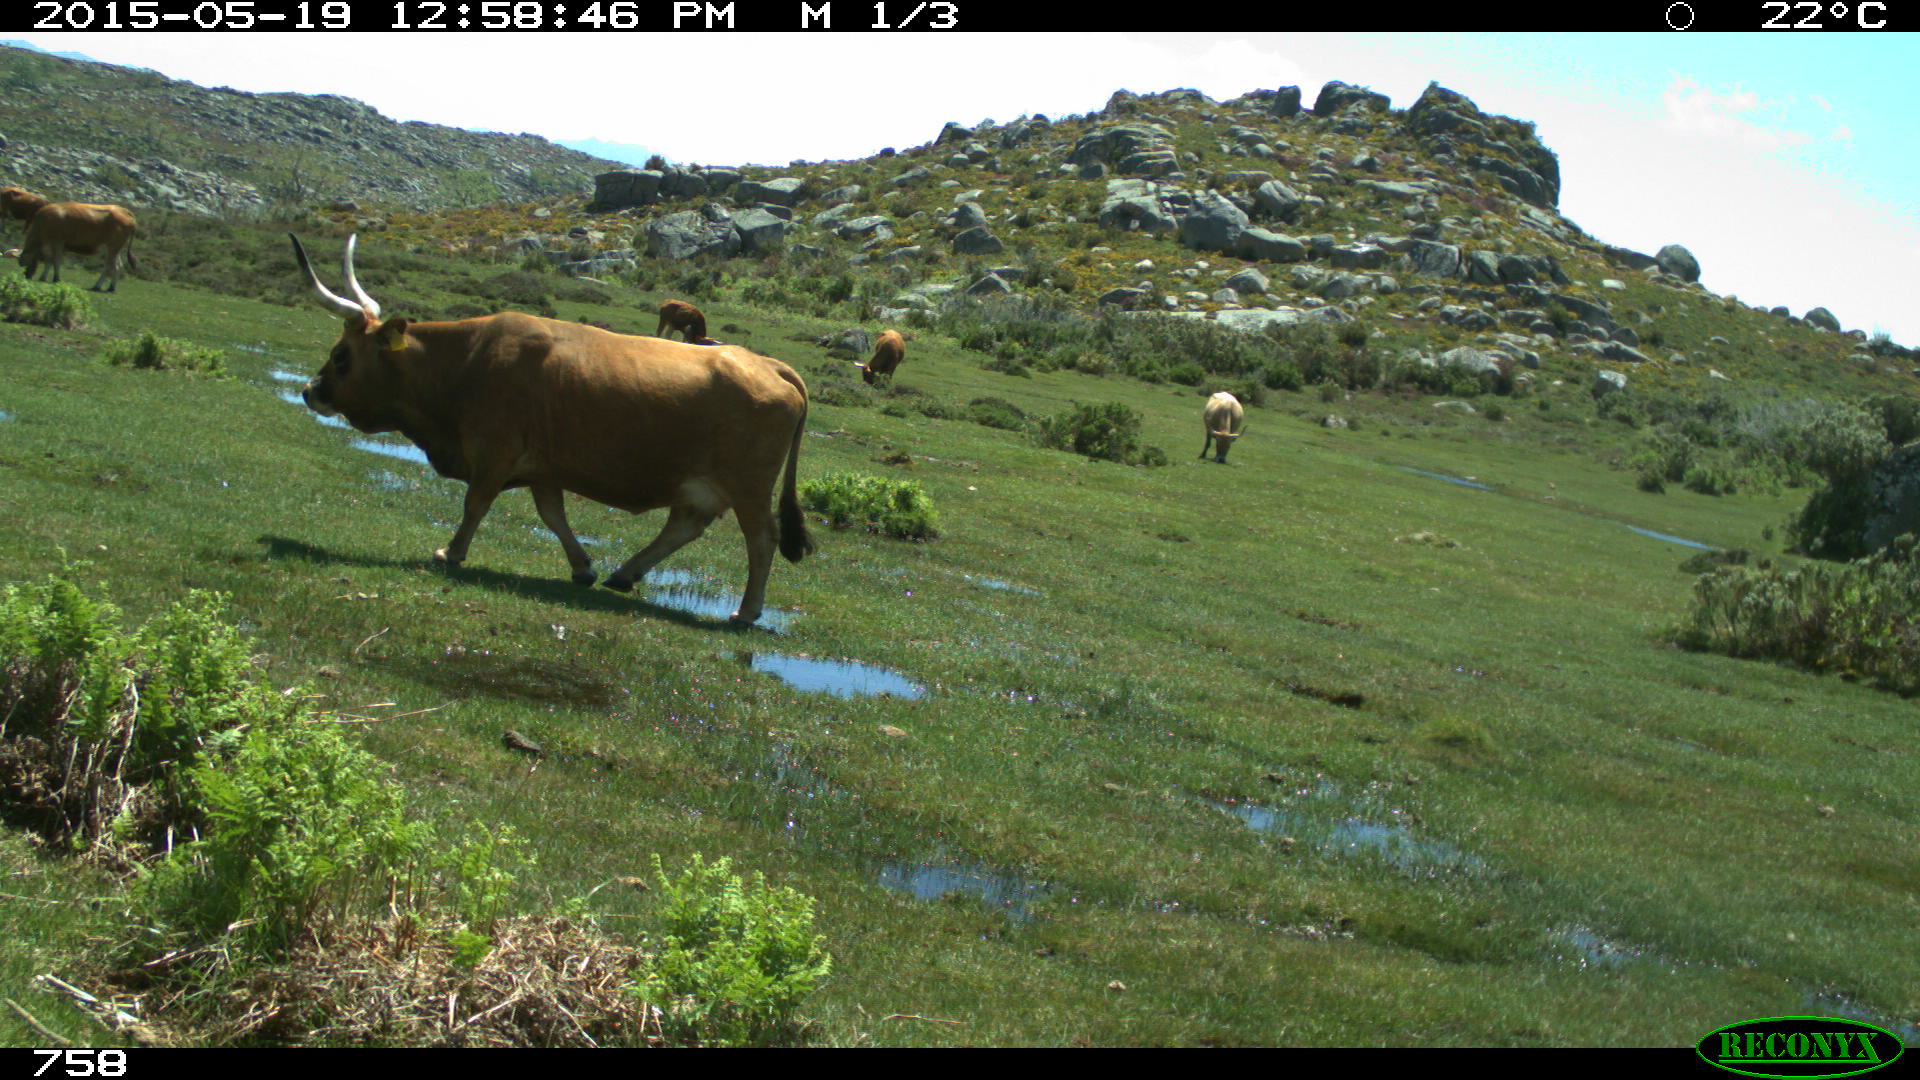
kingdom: Animalia
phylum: Chordata
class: Mammalia
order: Artiodactyla
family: Bovidae
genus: Bos
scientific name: Bos taurus
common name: Domesticated cattle
